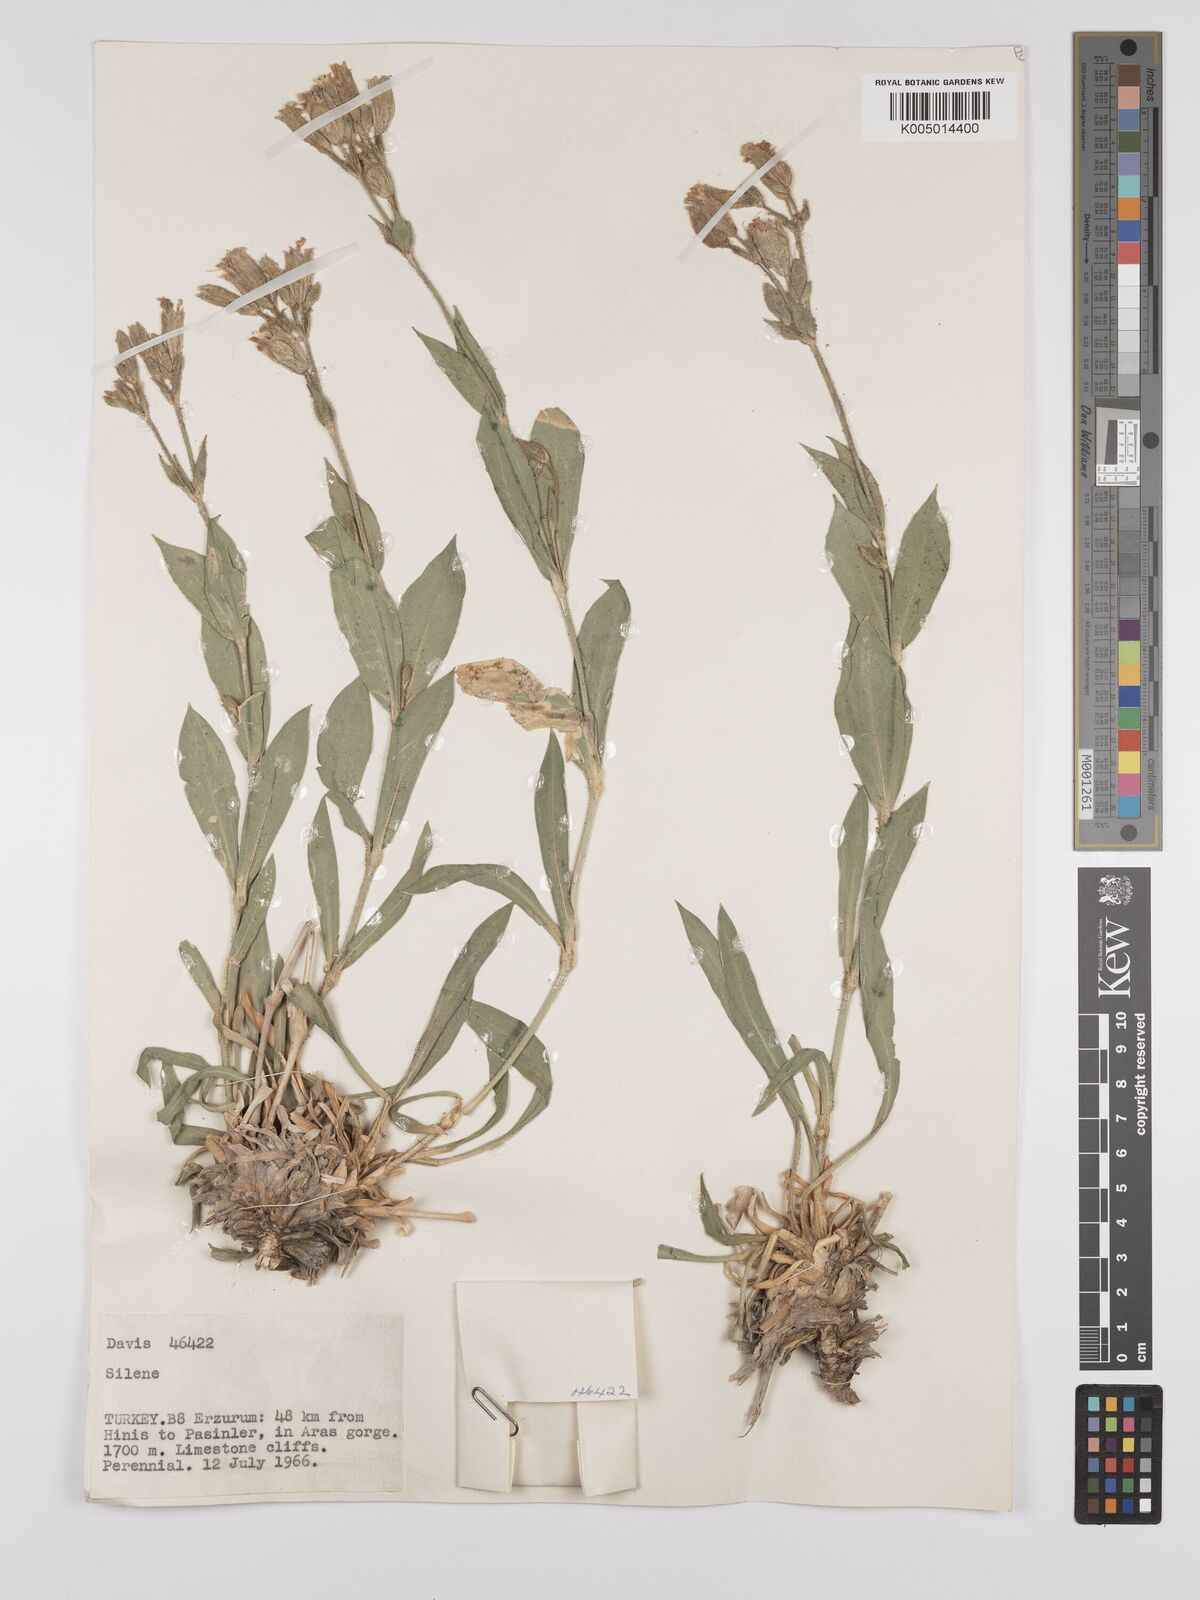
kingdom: Plantae
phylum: Tracheophyta
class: Magnoliopsida
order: Caryophyllales
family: Caryophyllaceae
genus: Silene
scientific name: Silene
